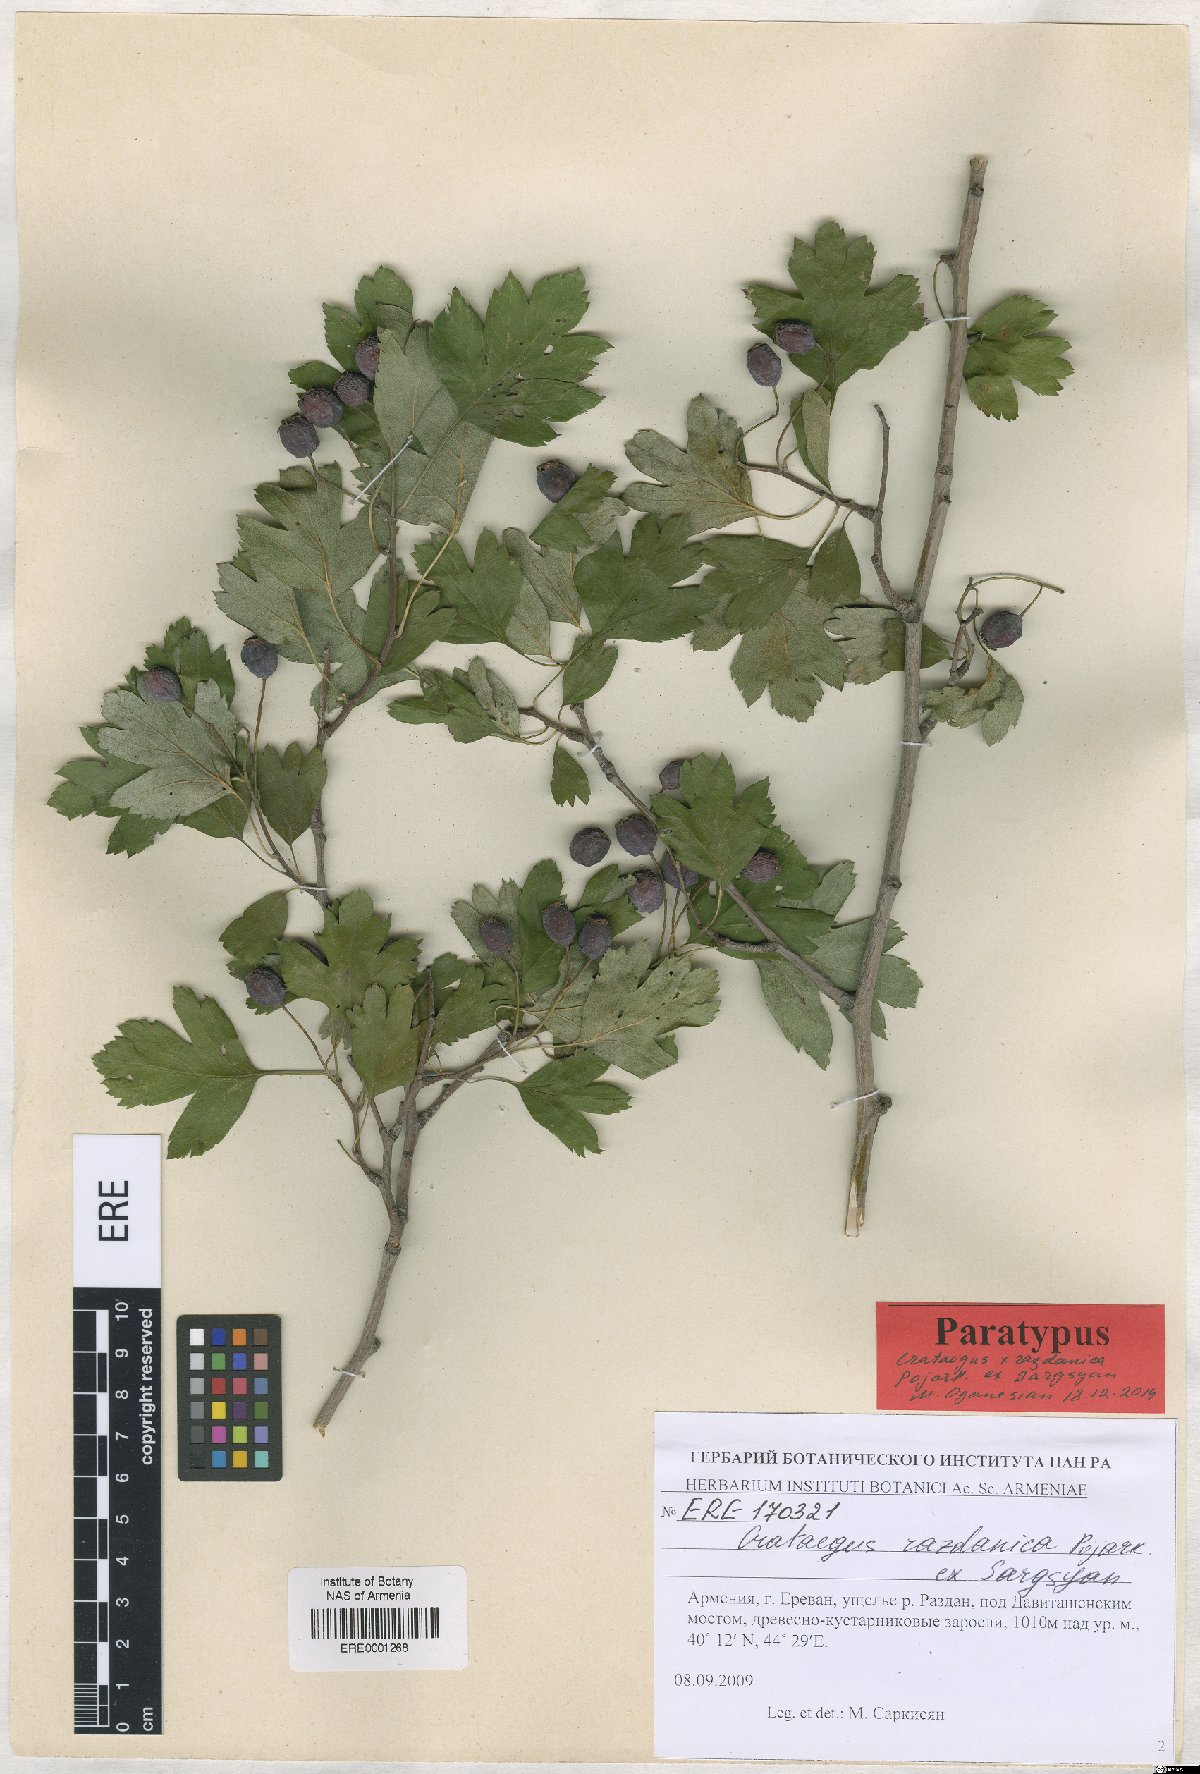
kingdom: Plantae
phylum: Tracheophyta
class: Magnoliopsida
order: Rosales
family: Rosaceae
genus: Crataegus
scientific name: Crataegus
